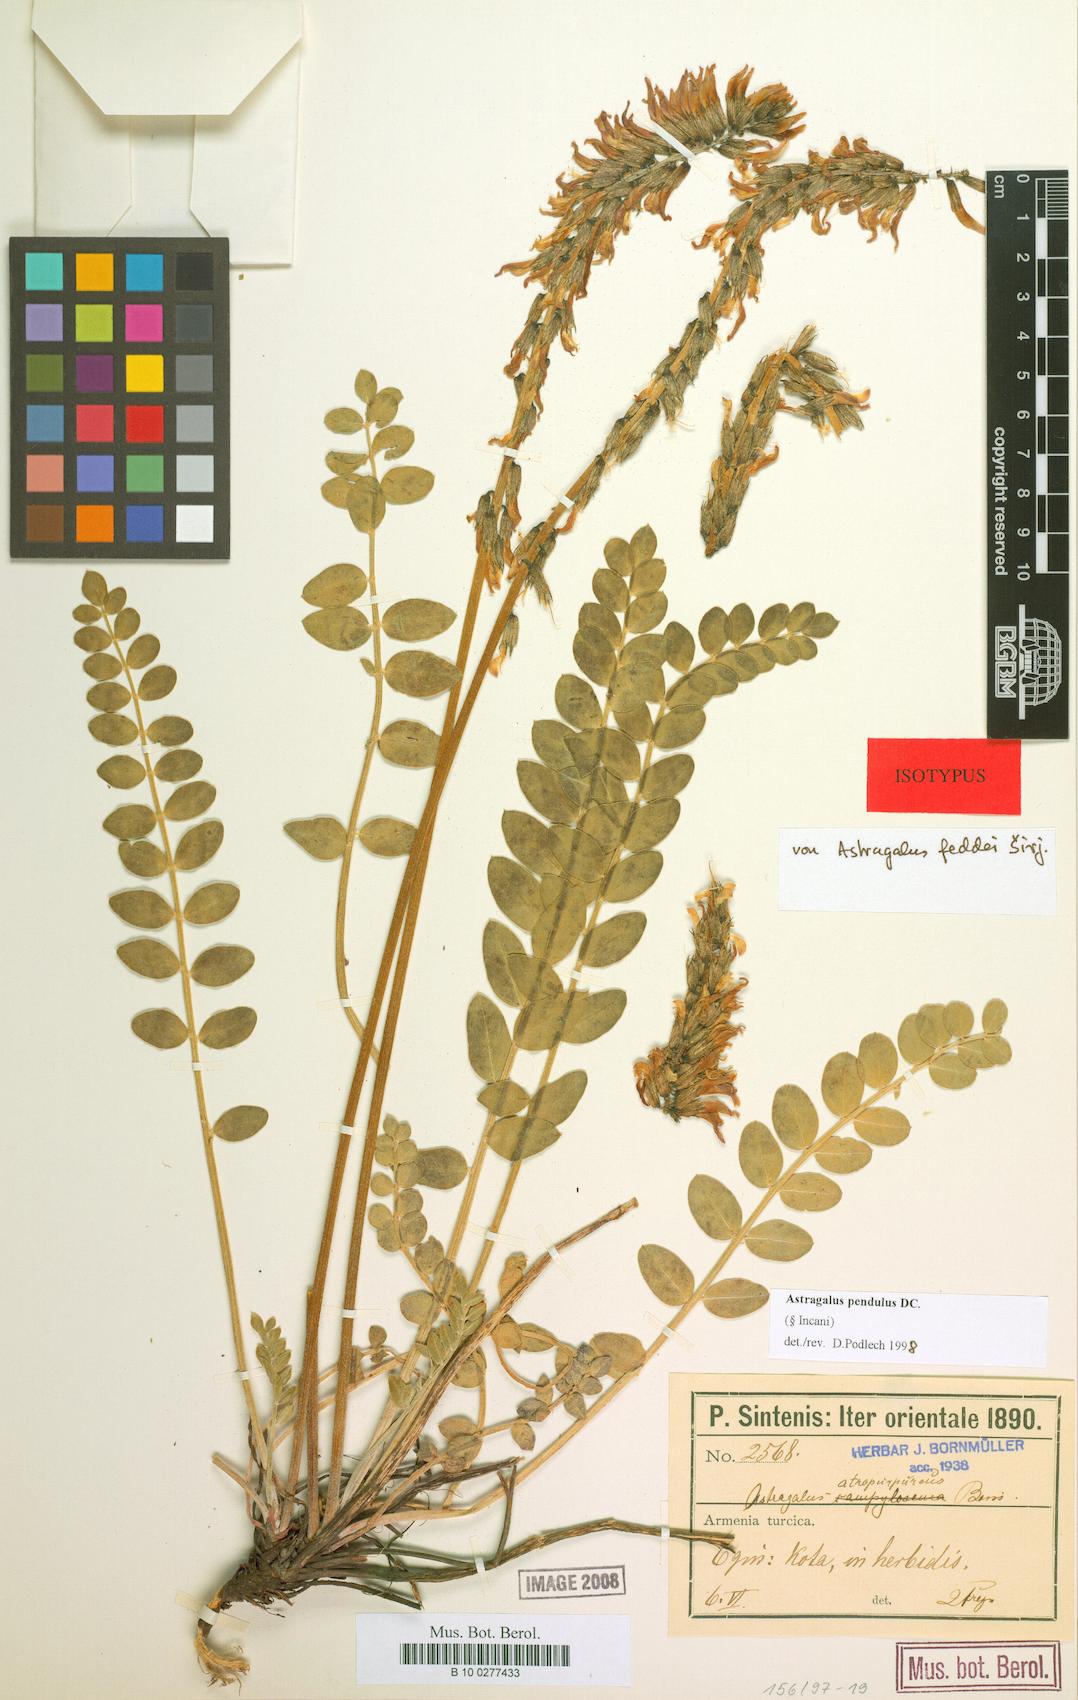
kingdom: Plantae
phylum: Tracheophyta
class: Magnoliopsida
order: Fabales
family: Fabaceae
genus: Astragalus
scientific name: Astragalus pendulus
